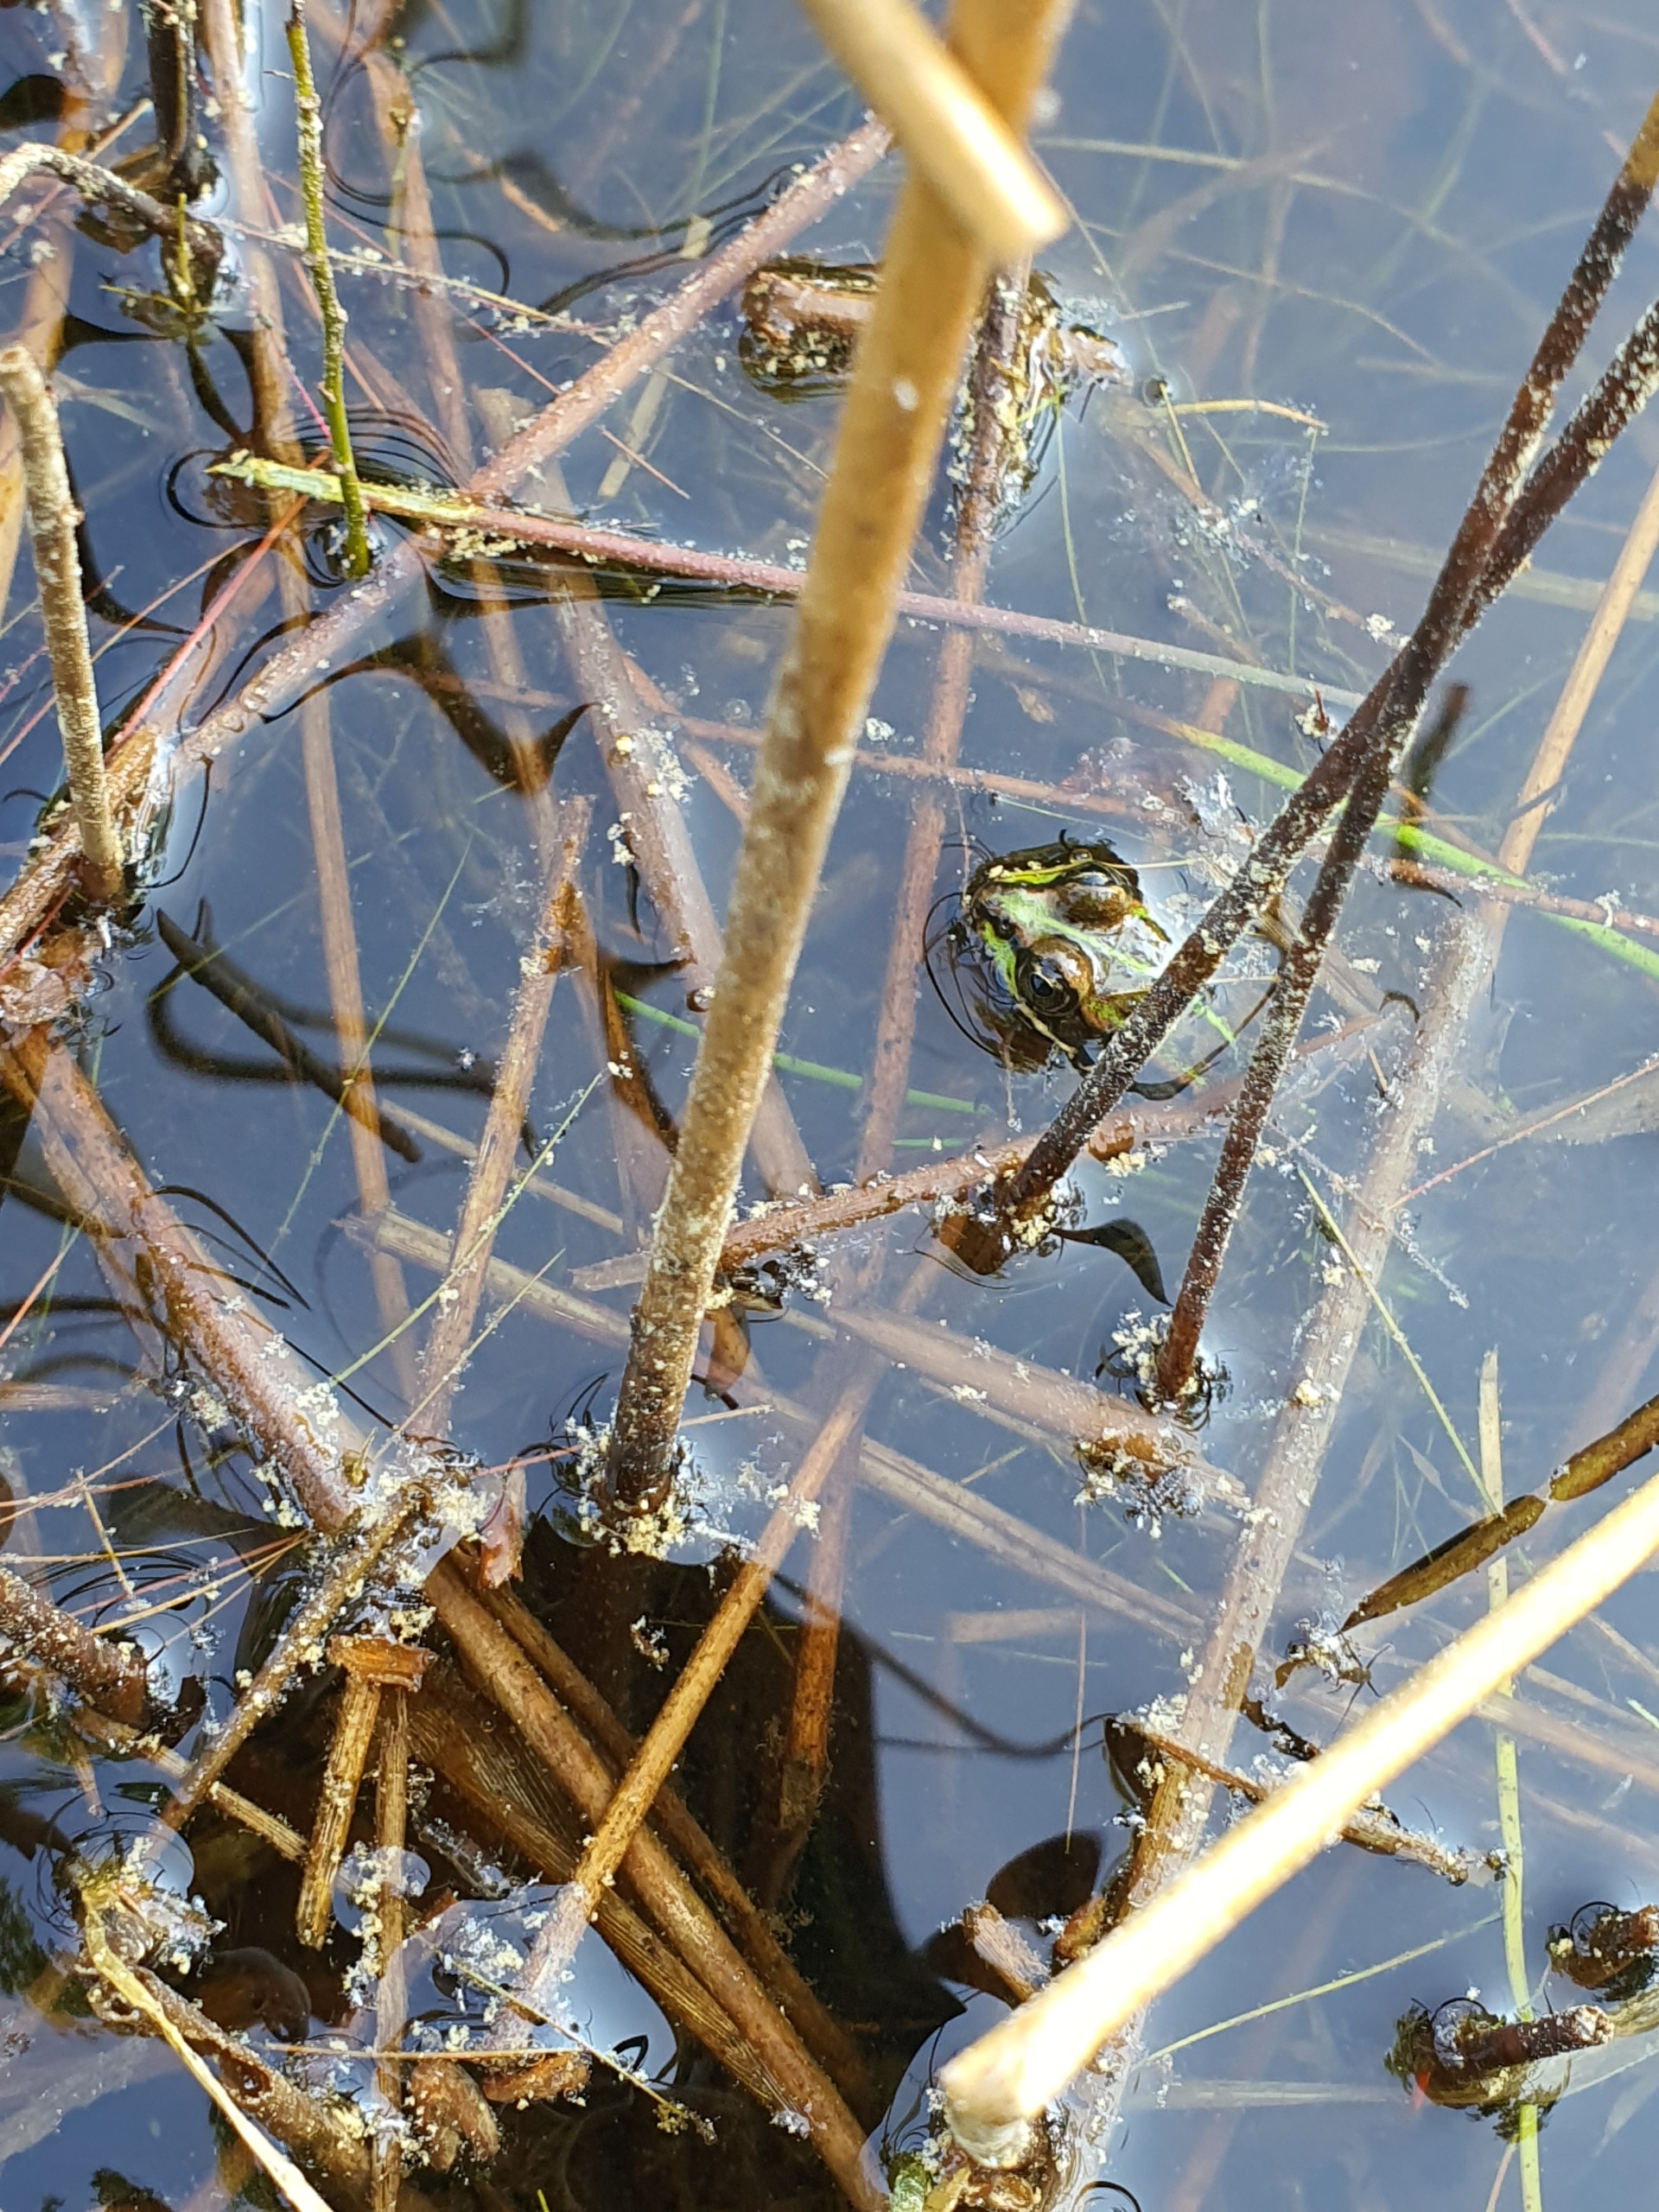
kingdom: Animalia
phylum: Chordata
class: Amphibia
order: Anura
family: Ranidae
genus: Pelophylax
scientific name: Pelophylax lessonae
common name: Grøn frø
